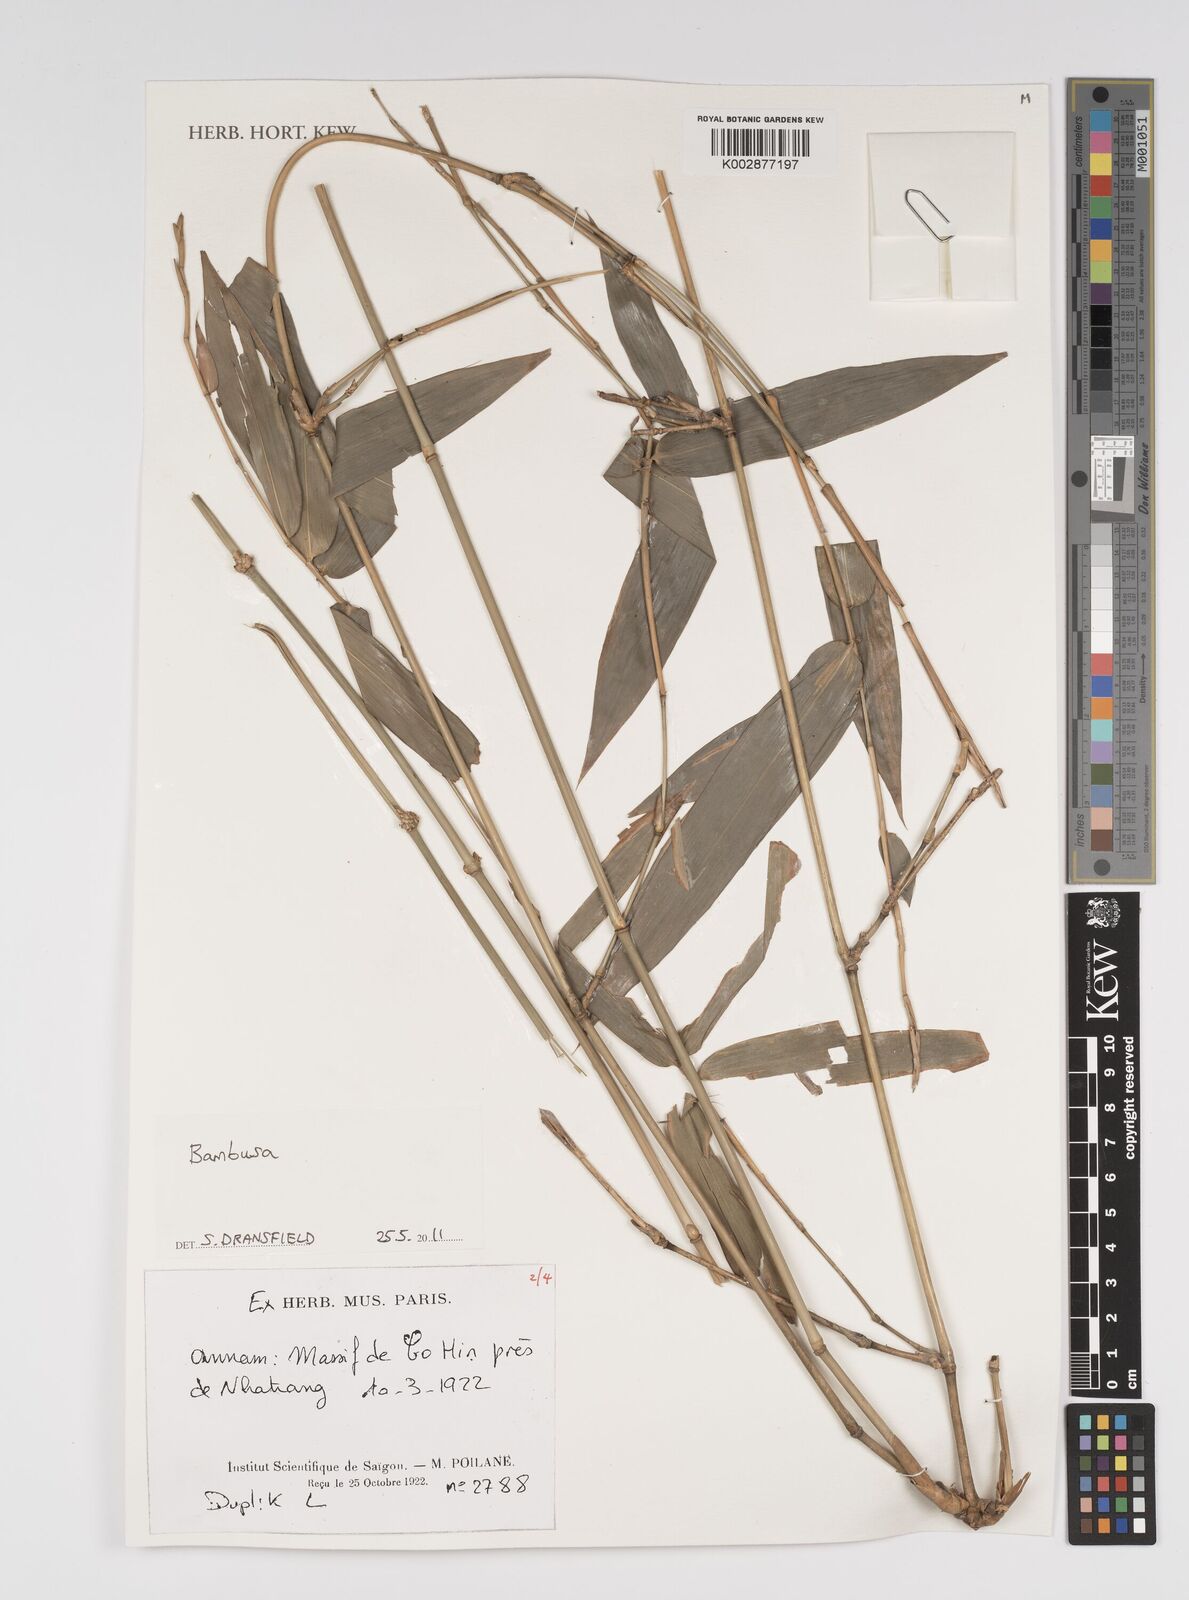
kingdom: Plantae
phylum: Tracheophyta
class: Liliopsida
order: Poales
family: Poaceae
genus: Bambusa
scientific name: Bambusa
